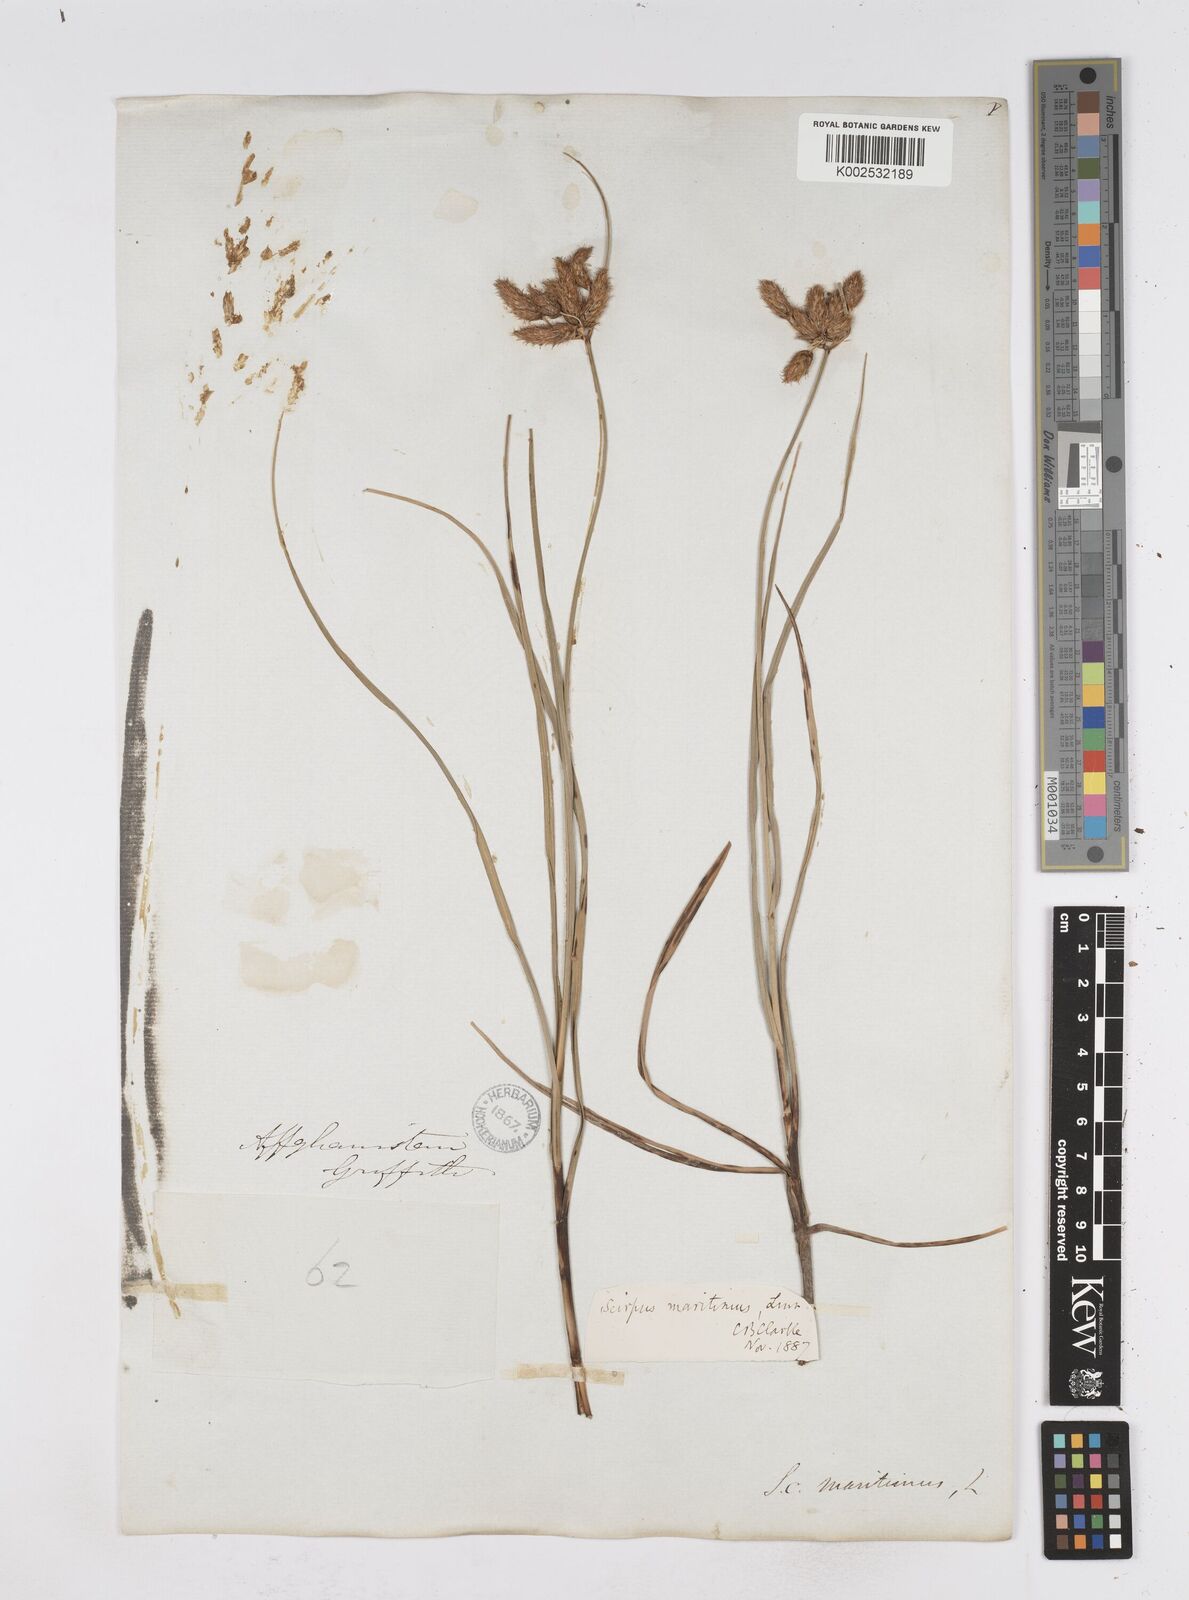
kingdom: Plantae
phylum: Tracheophyta
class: Liliopsida
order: Poales
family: Cyperaceae
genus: Bolboschoenus
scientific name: Bolboschoenus maritimus
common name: Sea club-rush
